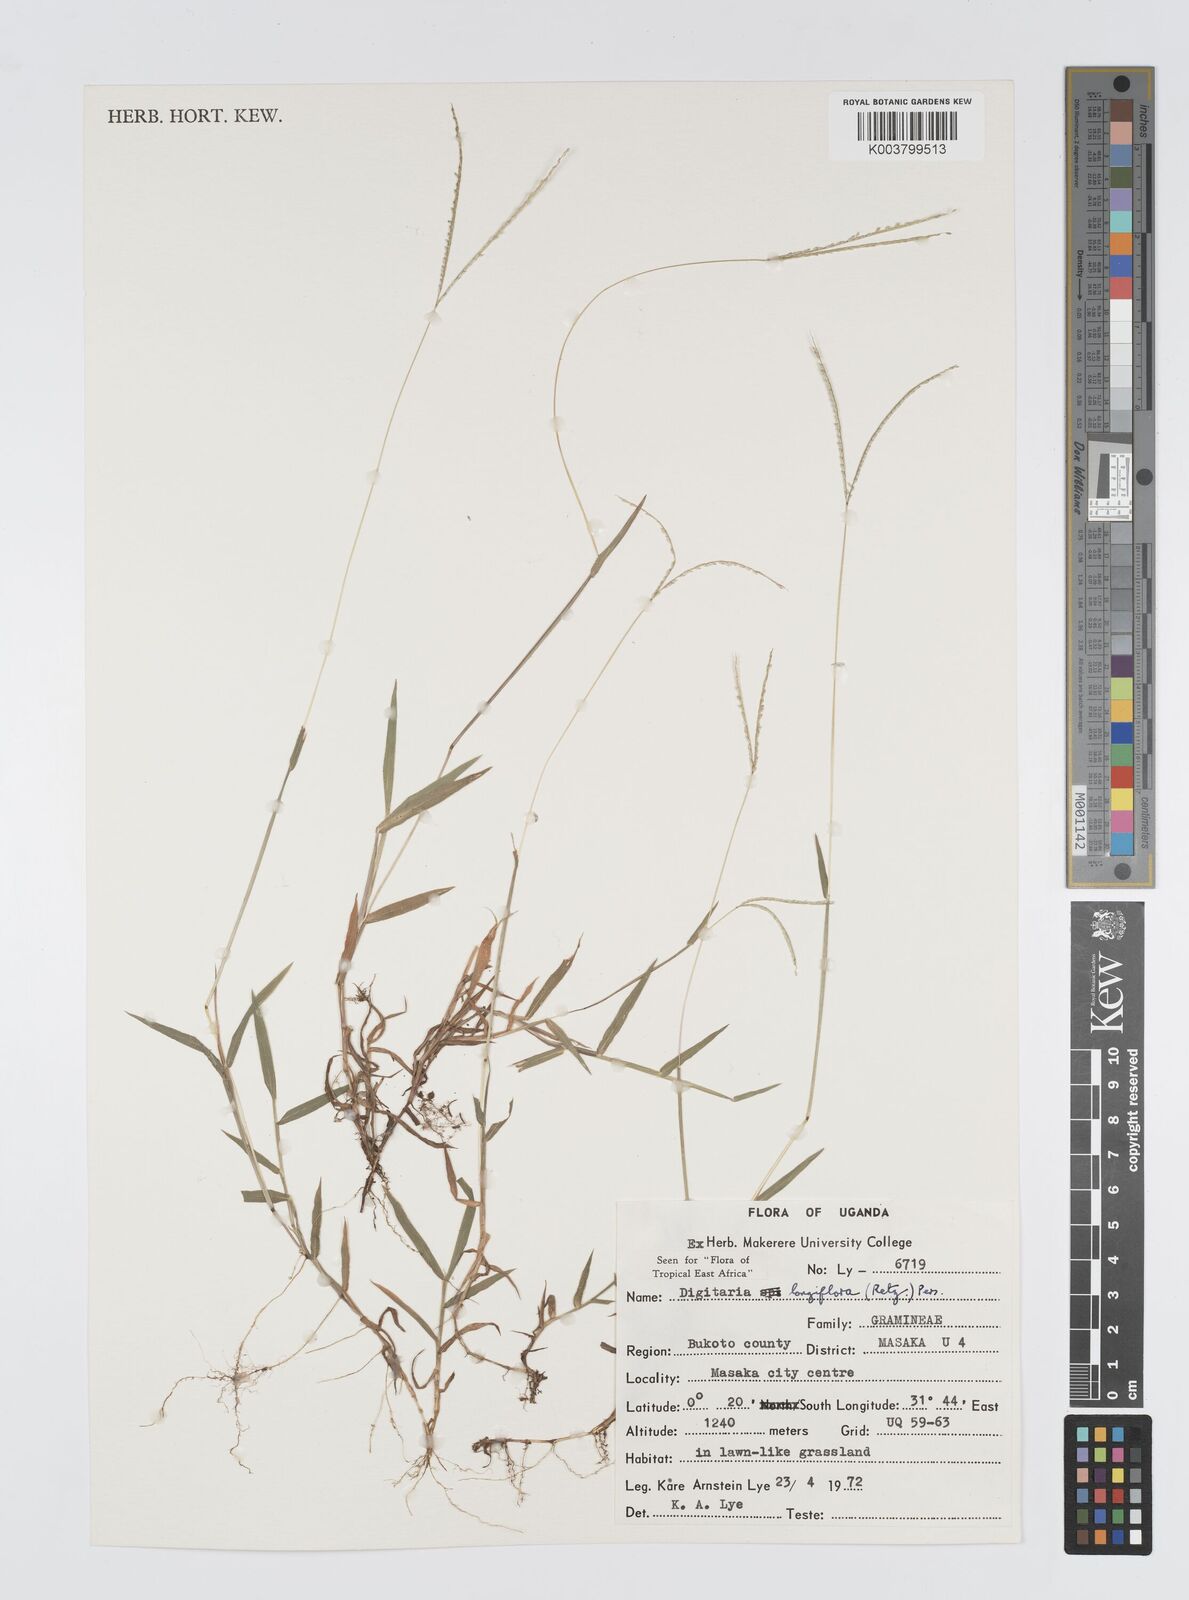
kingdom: Plantae
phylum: Tracheophyta
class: Liliopsida
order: Poales
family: Poaceae
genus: Digitaria
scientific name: Digitaria longiflora
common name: Wire crabgrass
